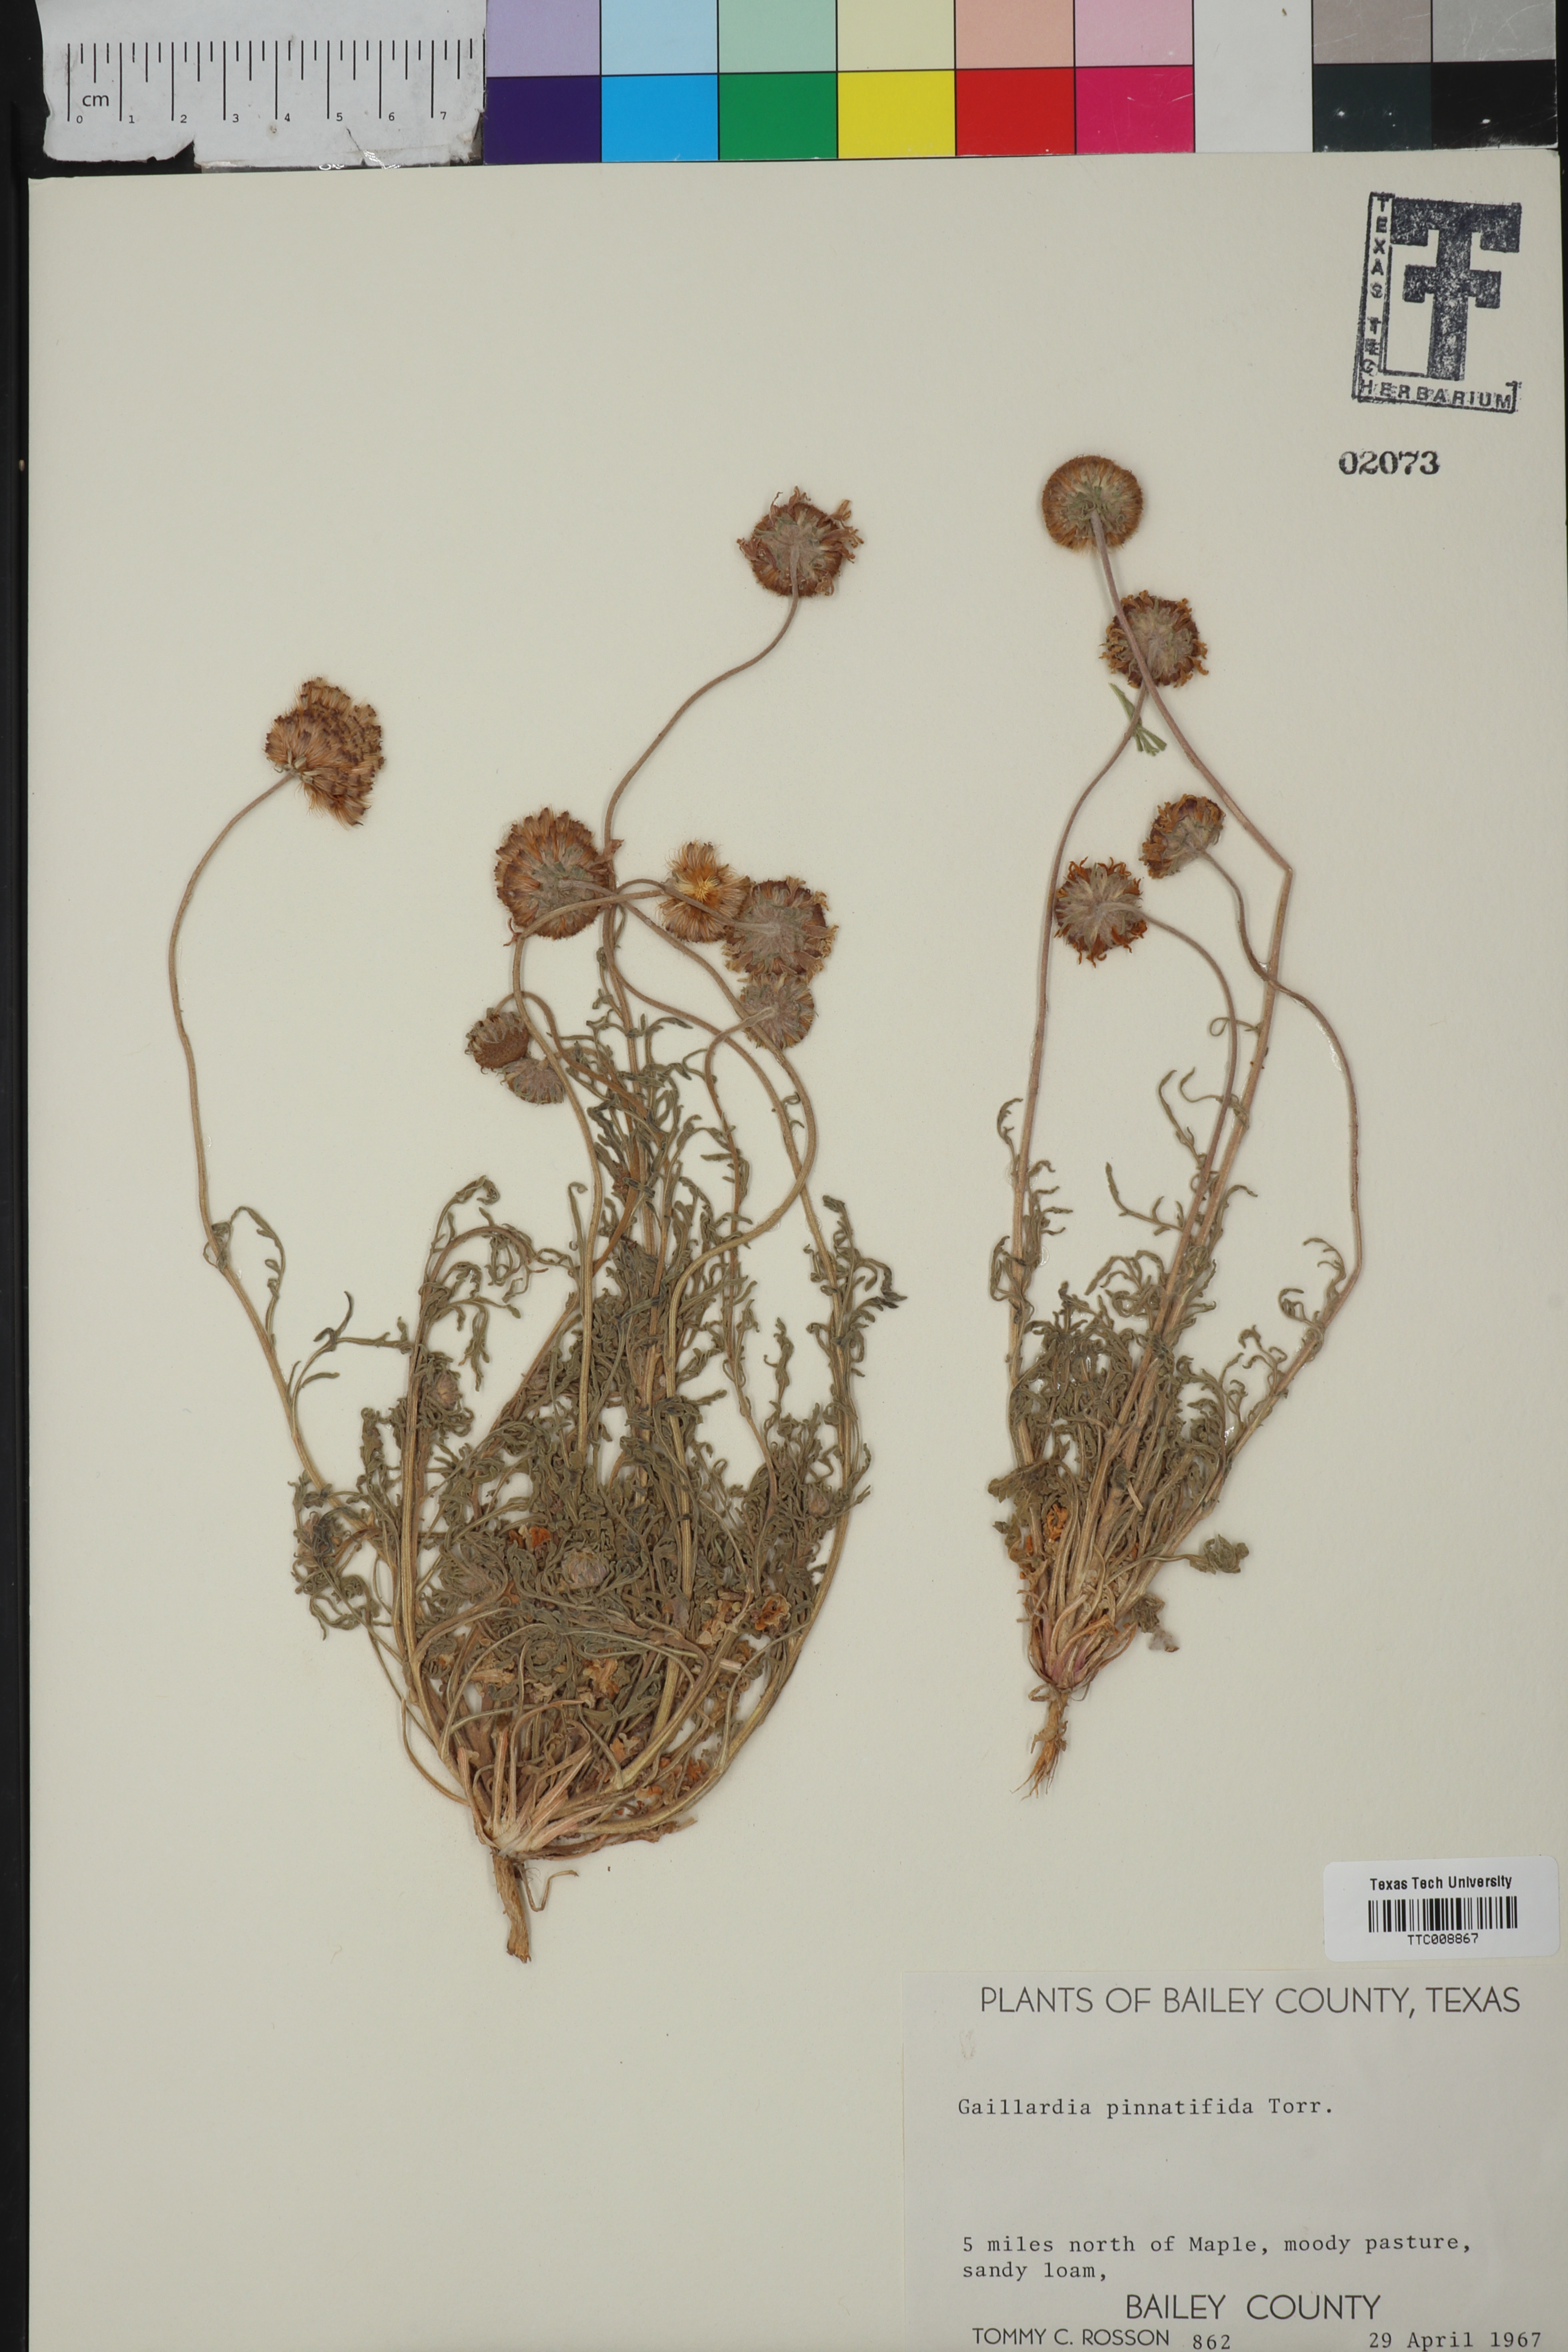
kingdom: Plantae
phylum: Tracheophyta
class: Magnoliopsida
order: Asterales
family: Asteraceae
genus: Gaillardia
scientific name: Gaillardia pinnatifida
